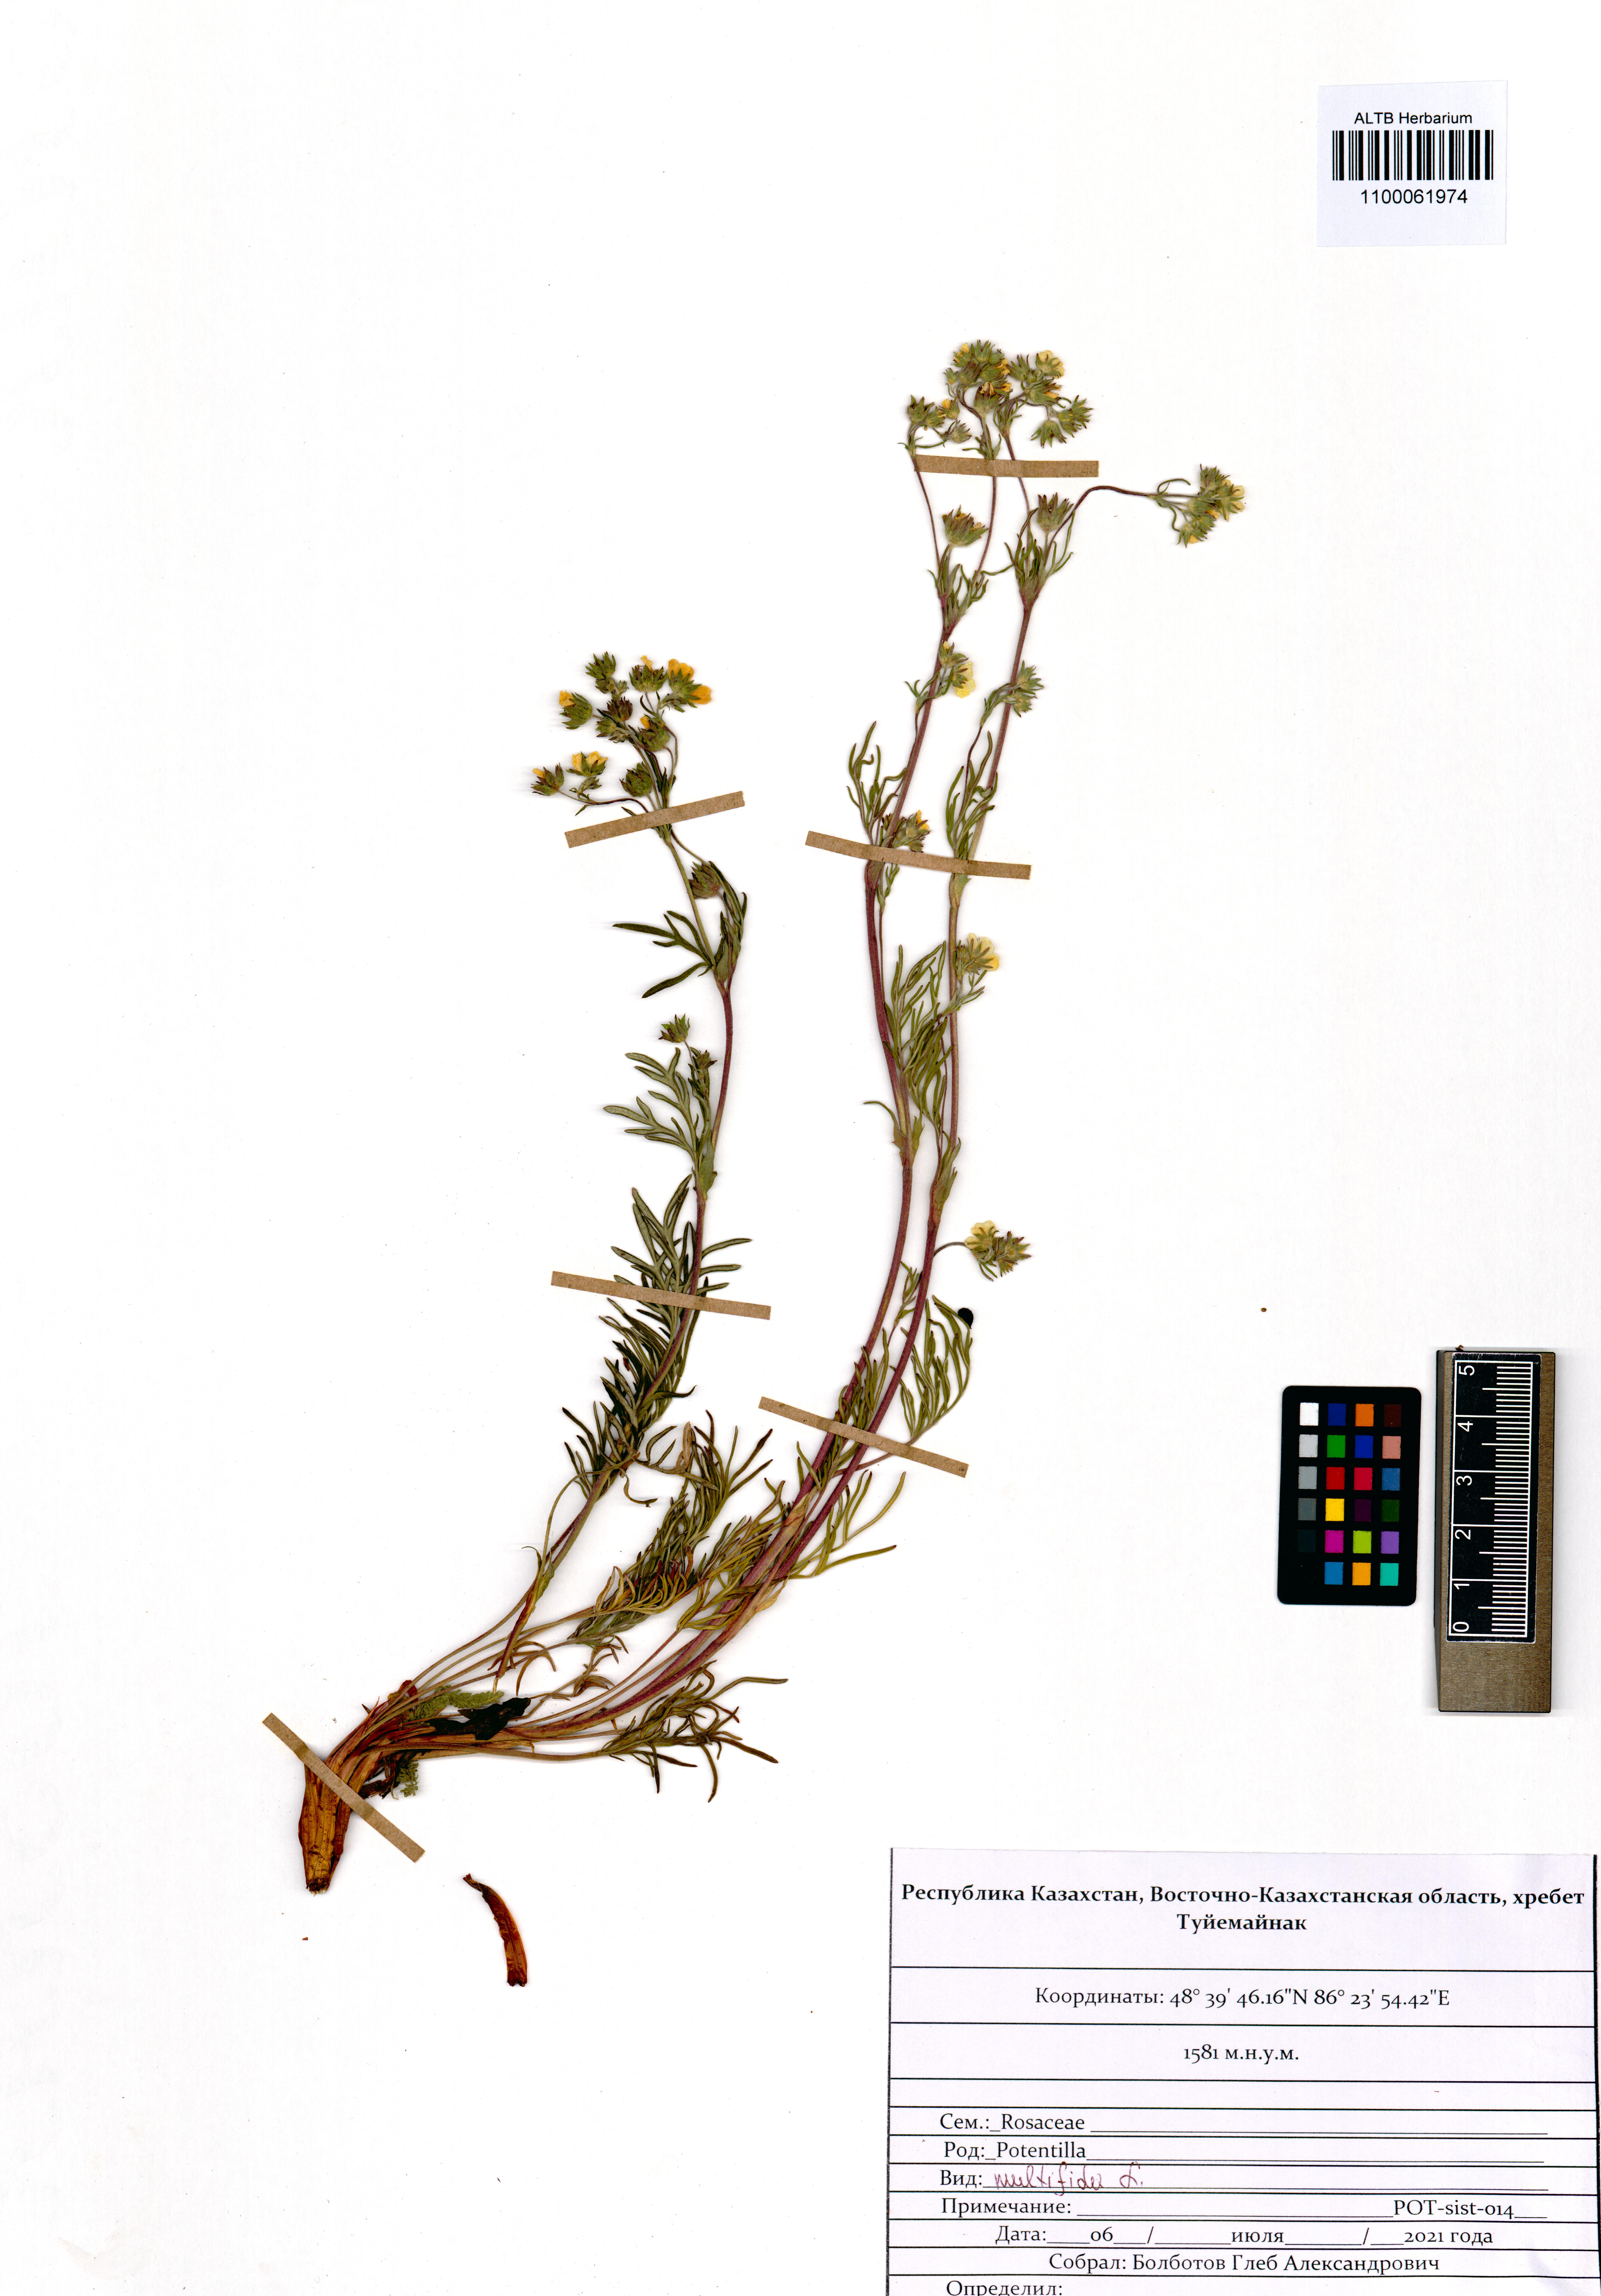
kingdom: Plantae
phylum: Tracheophyta
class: Magnoliopsida
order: Rosales
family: Rosaceae
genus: Potentilla
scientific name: Potentilla multifida
